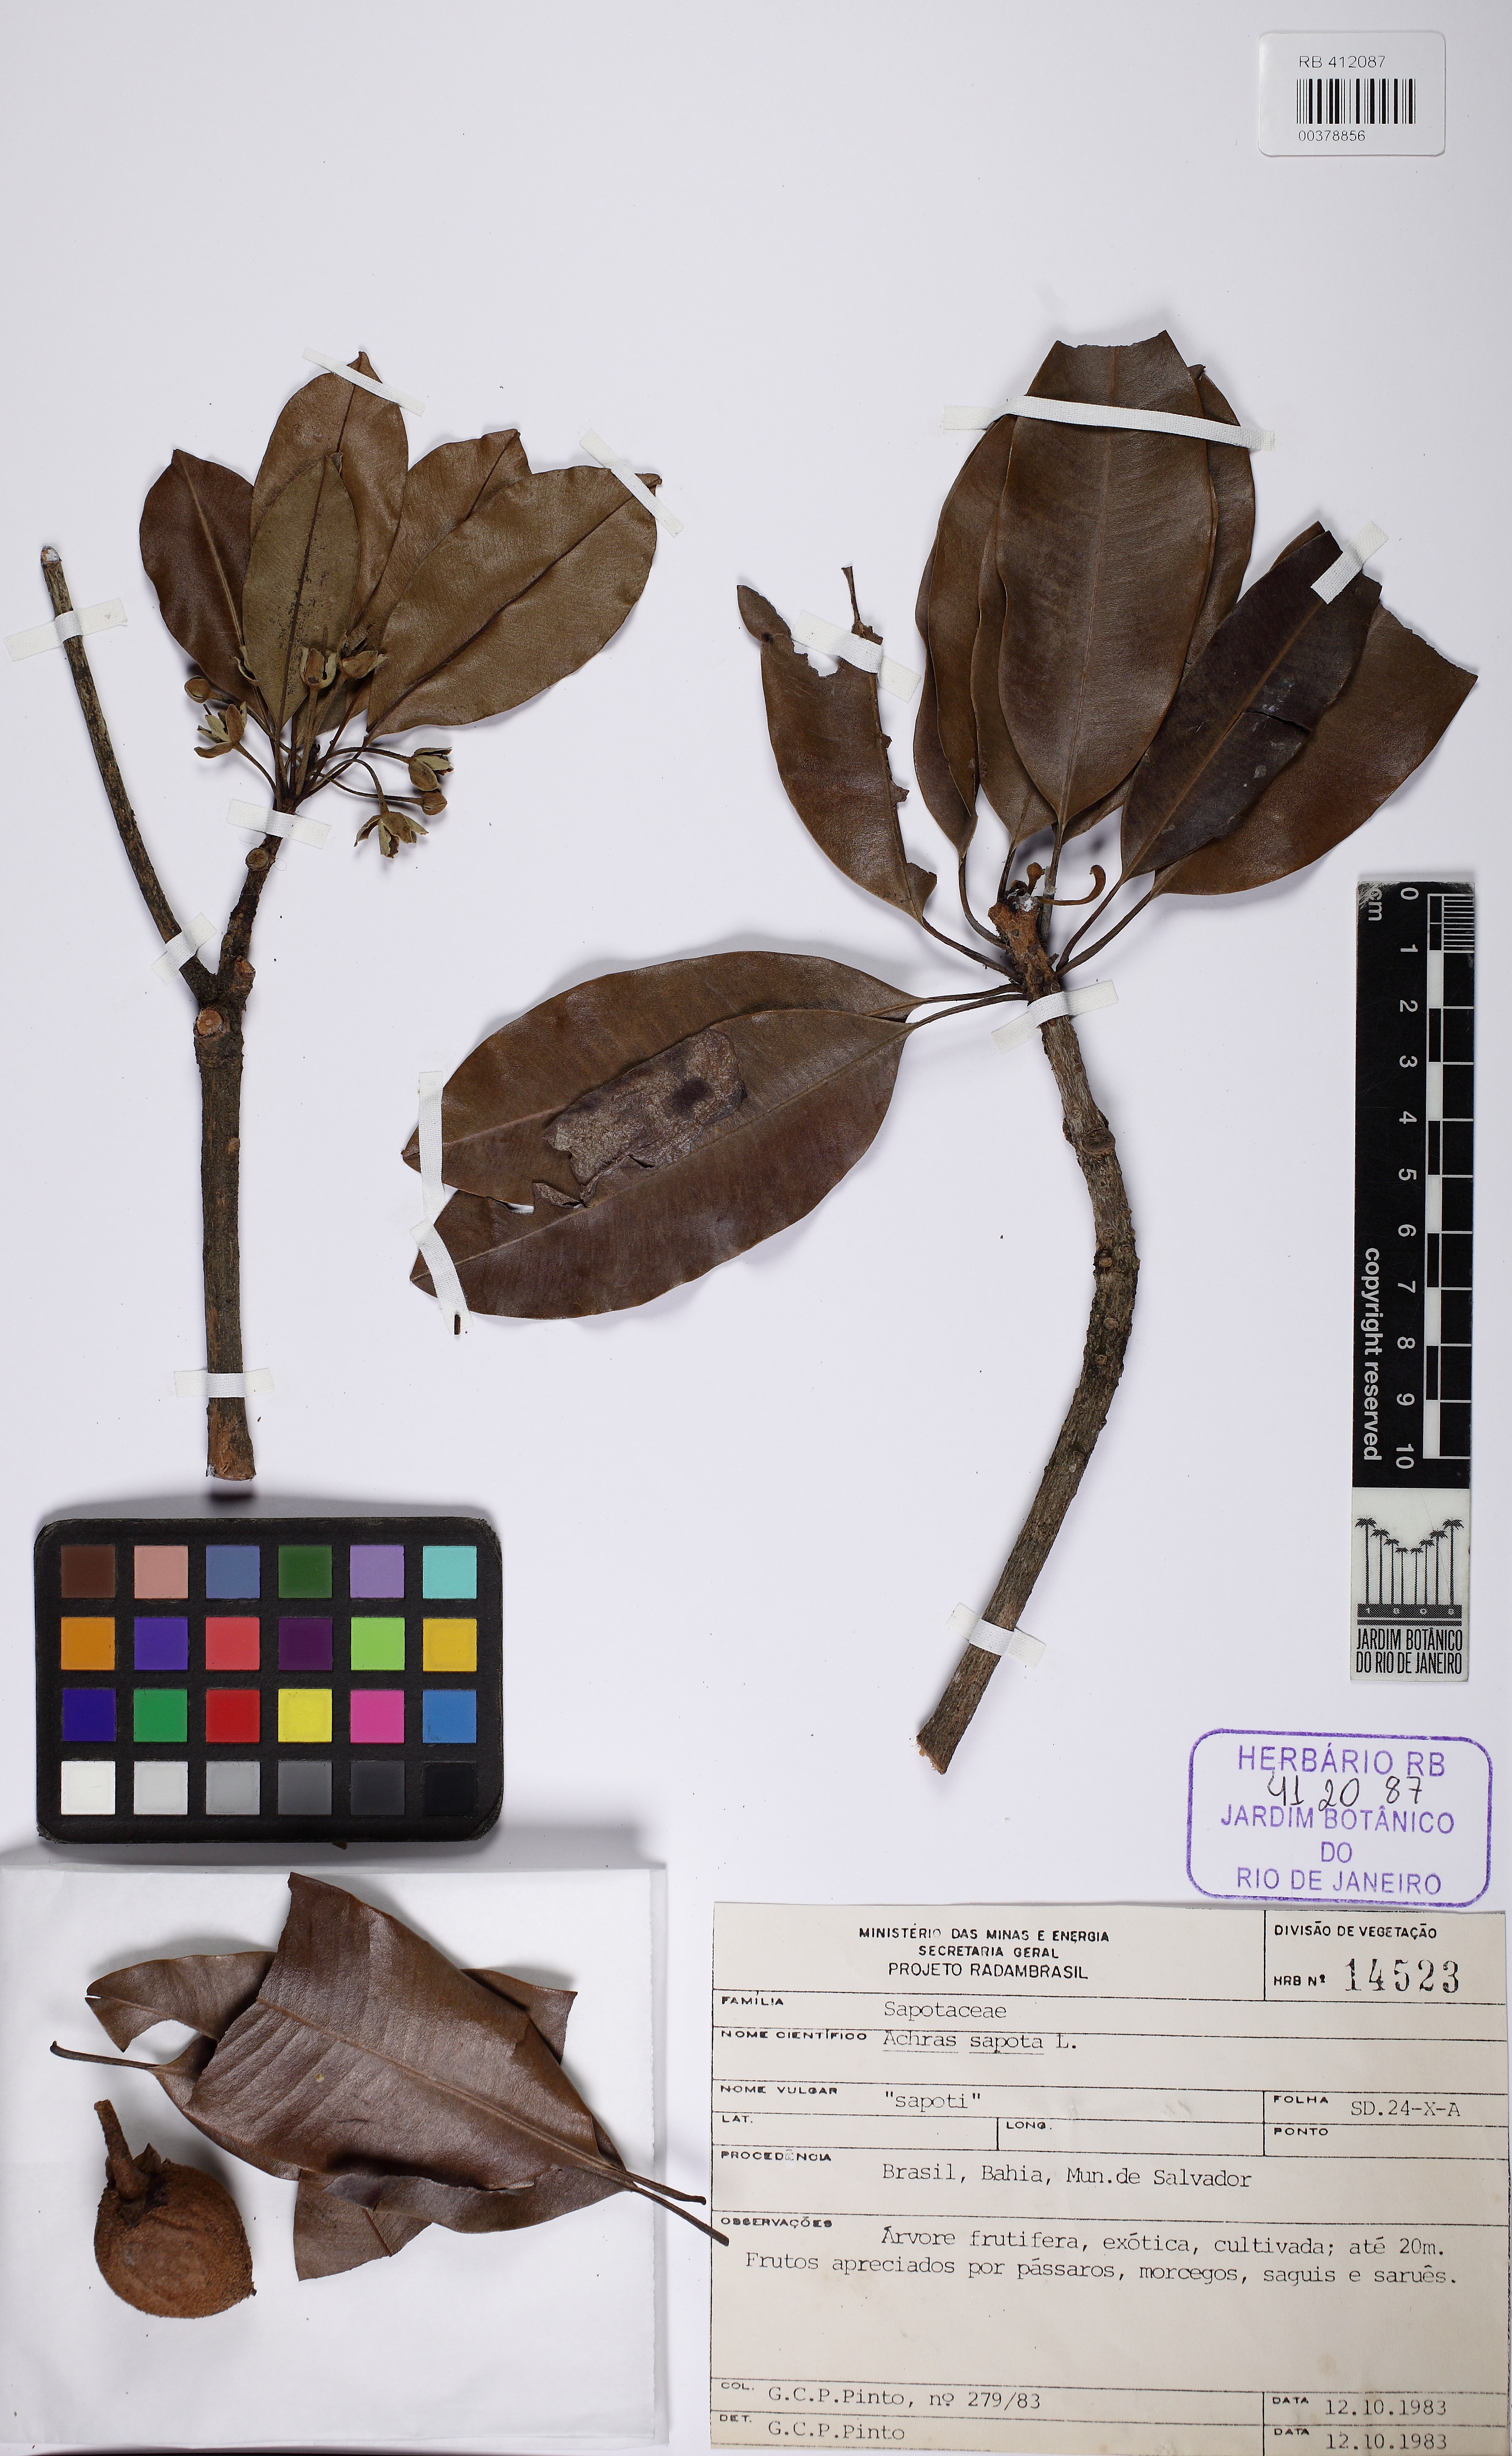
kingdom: Plantae
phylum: Tracheophyta
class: Magnoliopsida
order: Ericales
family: Sapotaceae
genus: Manilkara
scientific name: Manilkara zapota
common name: Sapodilla
